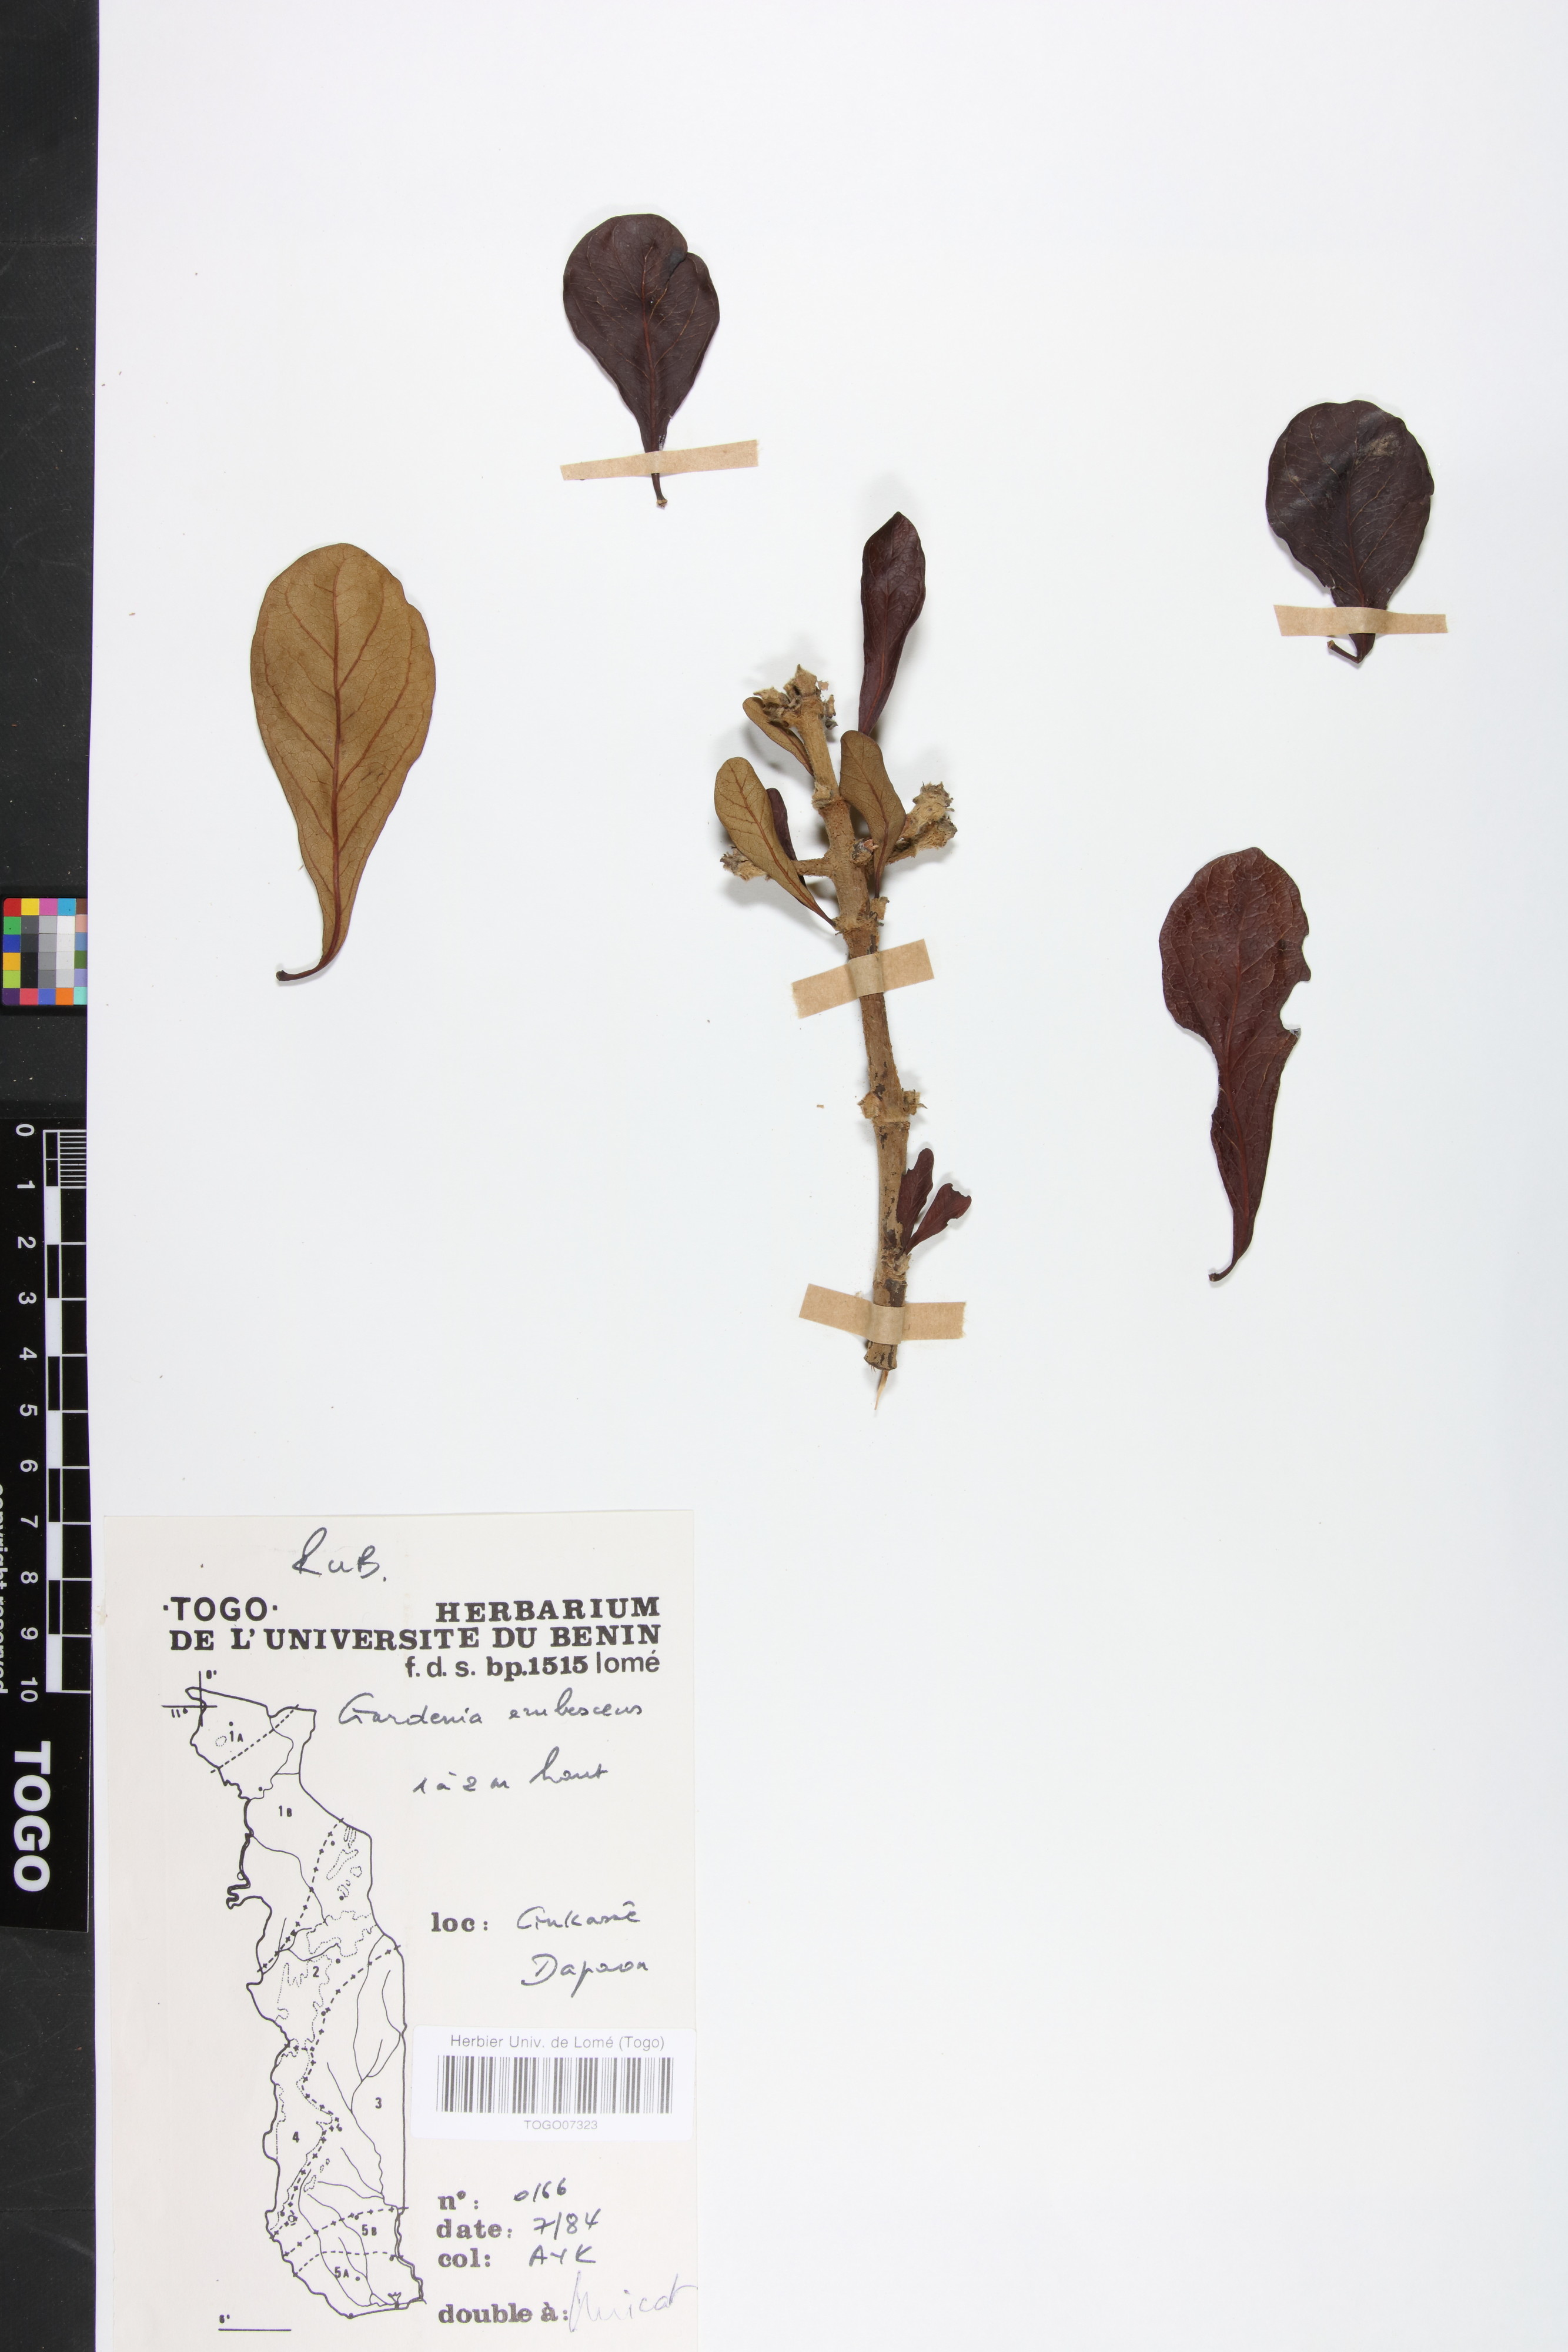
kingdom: Plantae
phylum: Tracheophyta
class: Magnoliopsida
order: Gentianales
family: Rubiaceae
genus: Gardenia
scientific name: Gardenia erubescens
